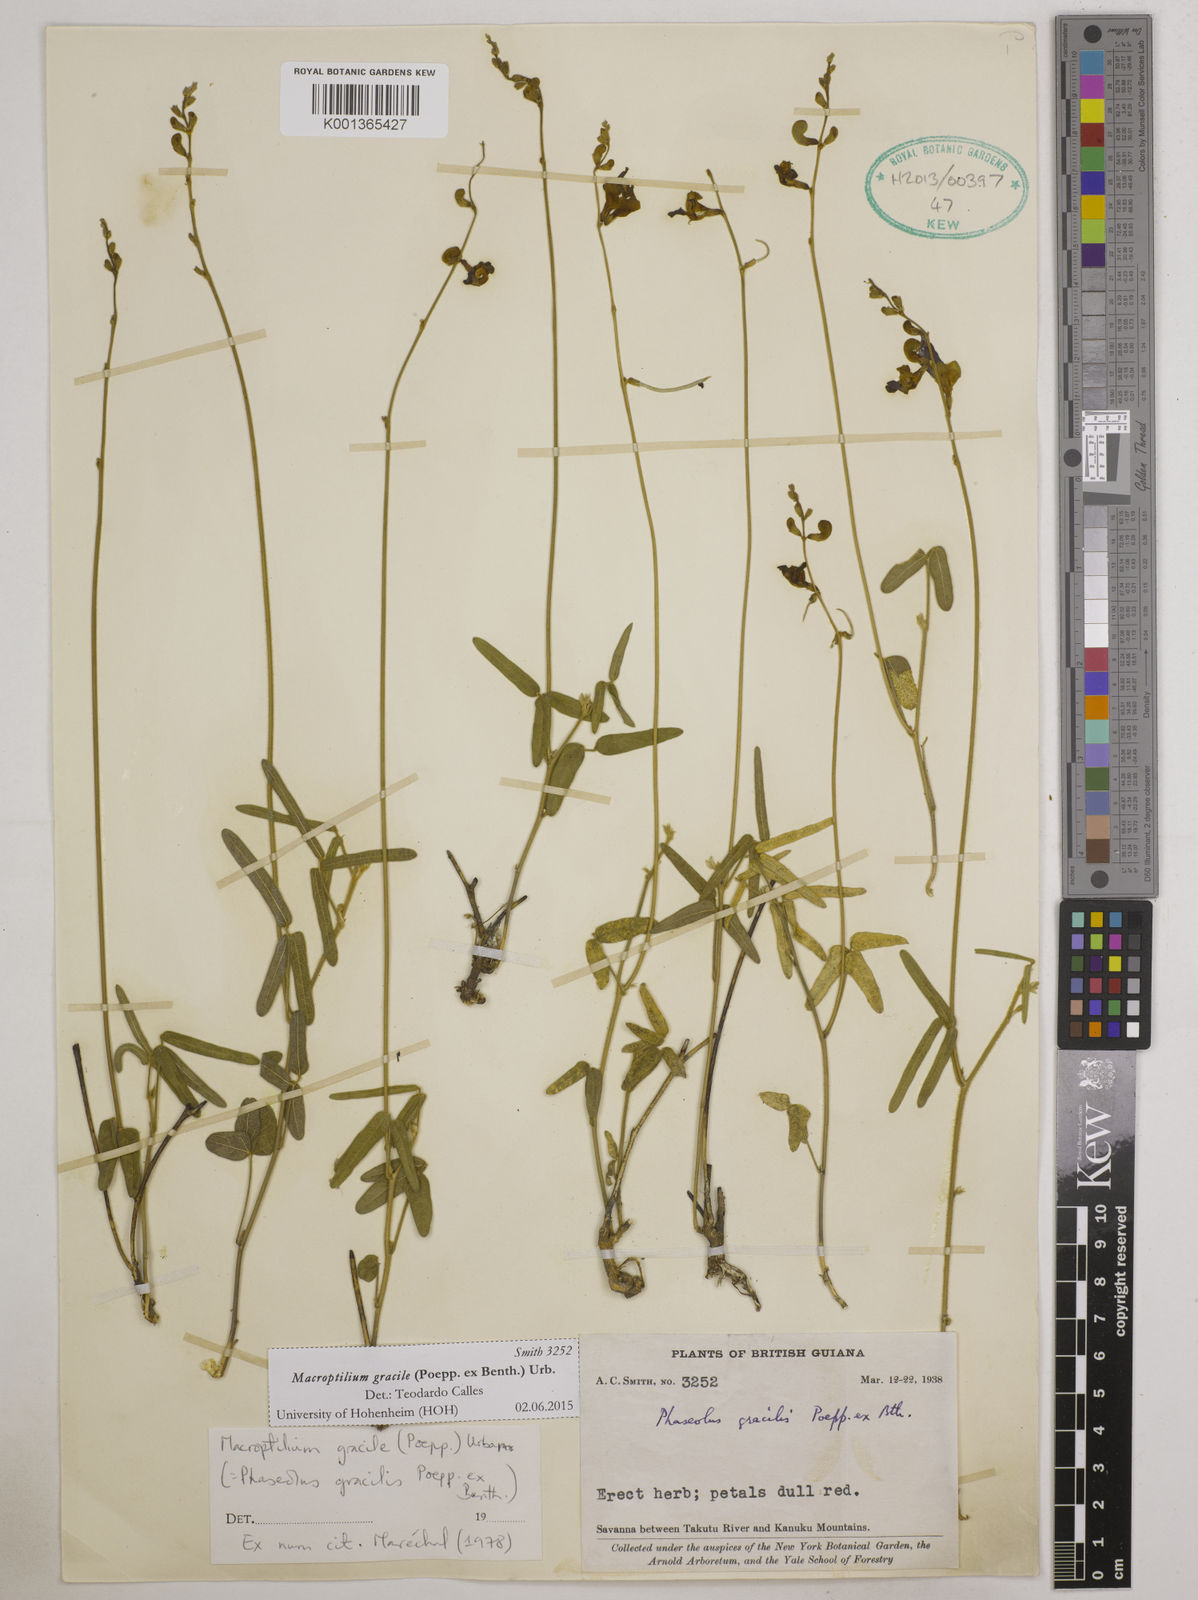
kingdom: Plantae
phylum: Tracheophyta
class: Magnoliopsida
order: Fabales
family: Fabaceae
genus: Macroptilium
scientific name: Macroptilium gracile
